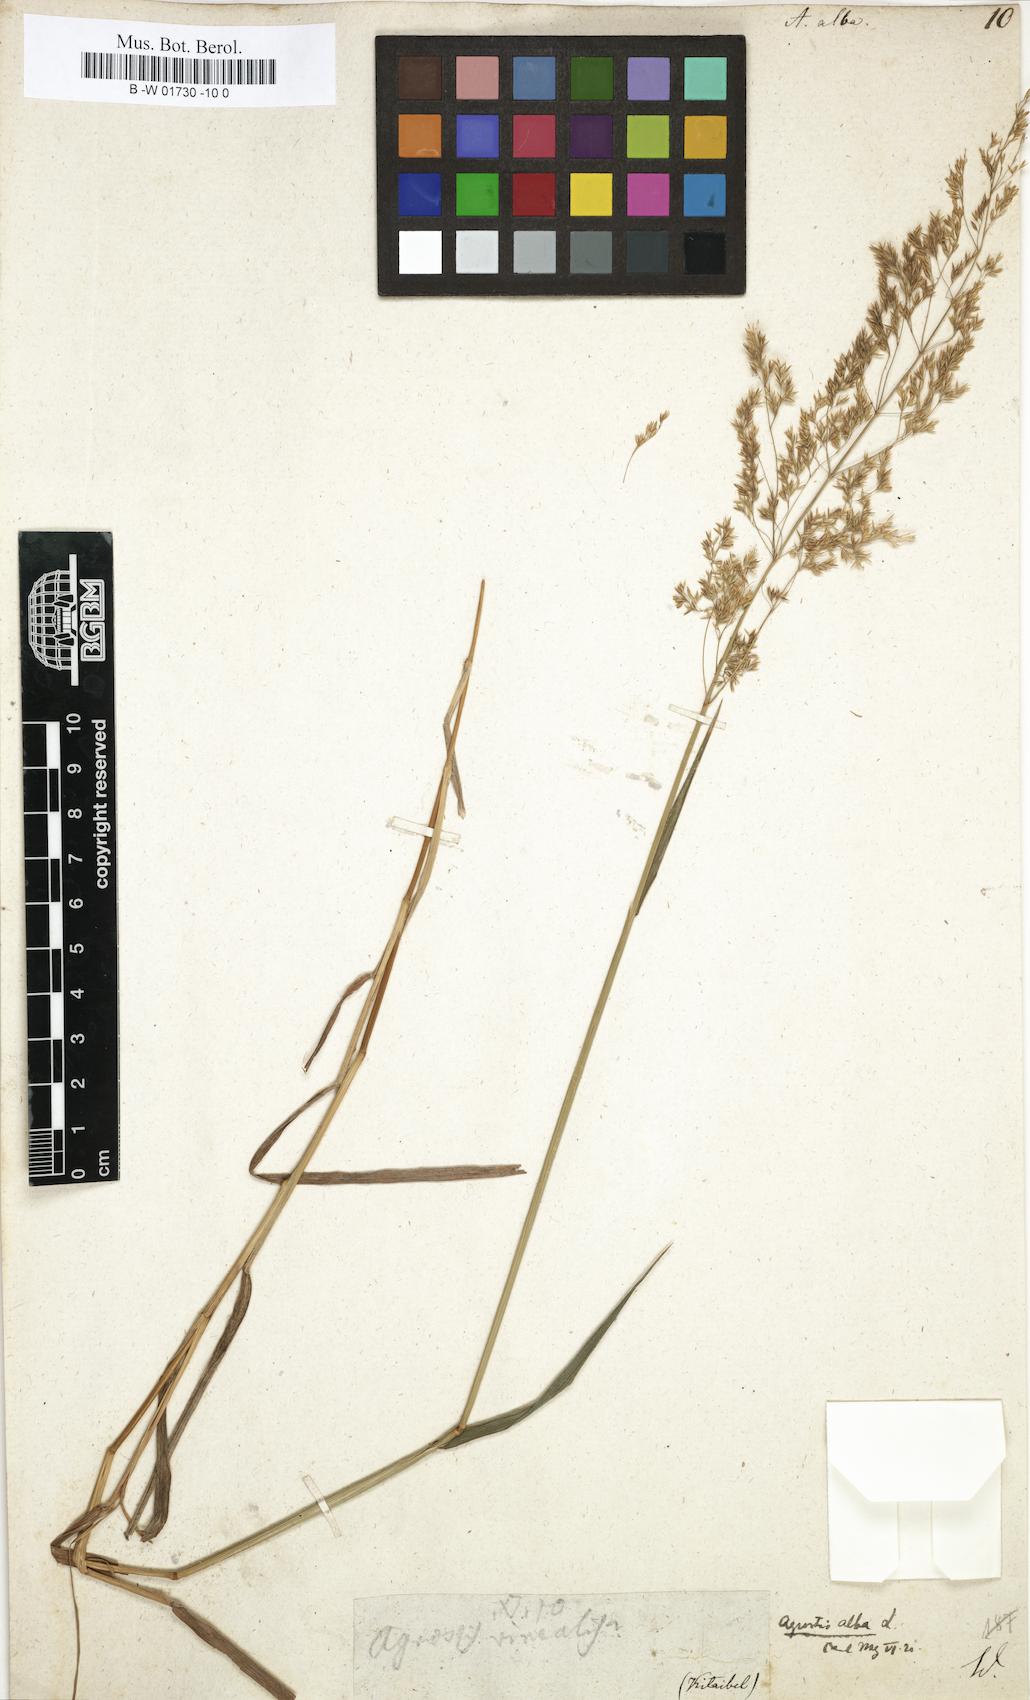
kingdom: Plantae
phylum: Tracheophyta
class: Liliopsida
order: Poales
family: Poaceae
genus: Poa
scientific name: Poa nemoralis
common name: Wood bluegrass
